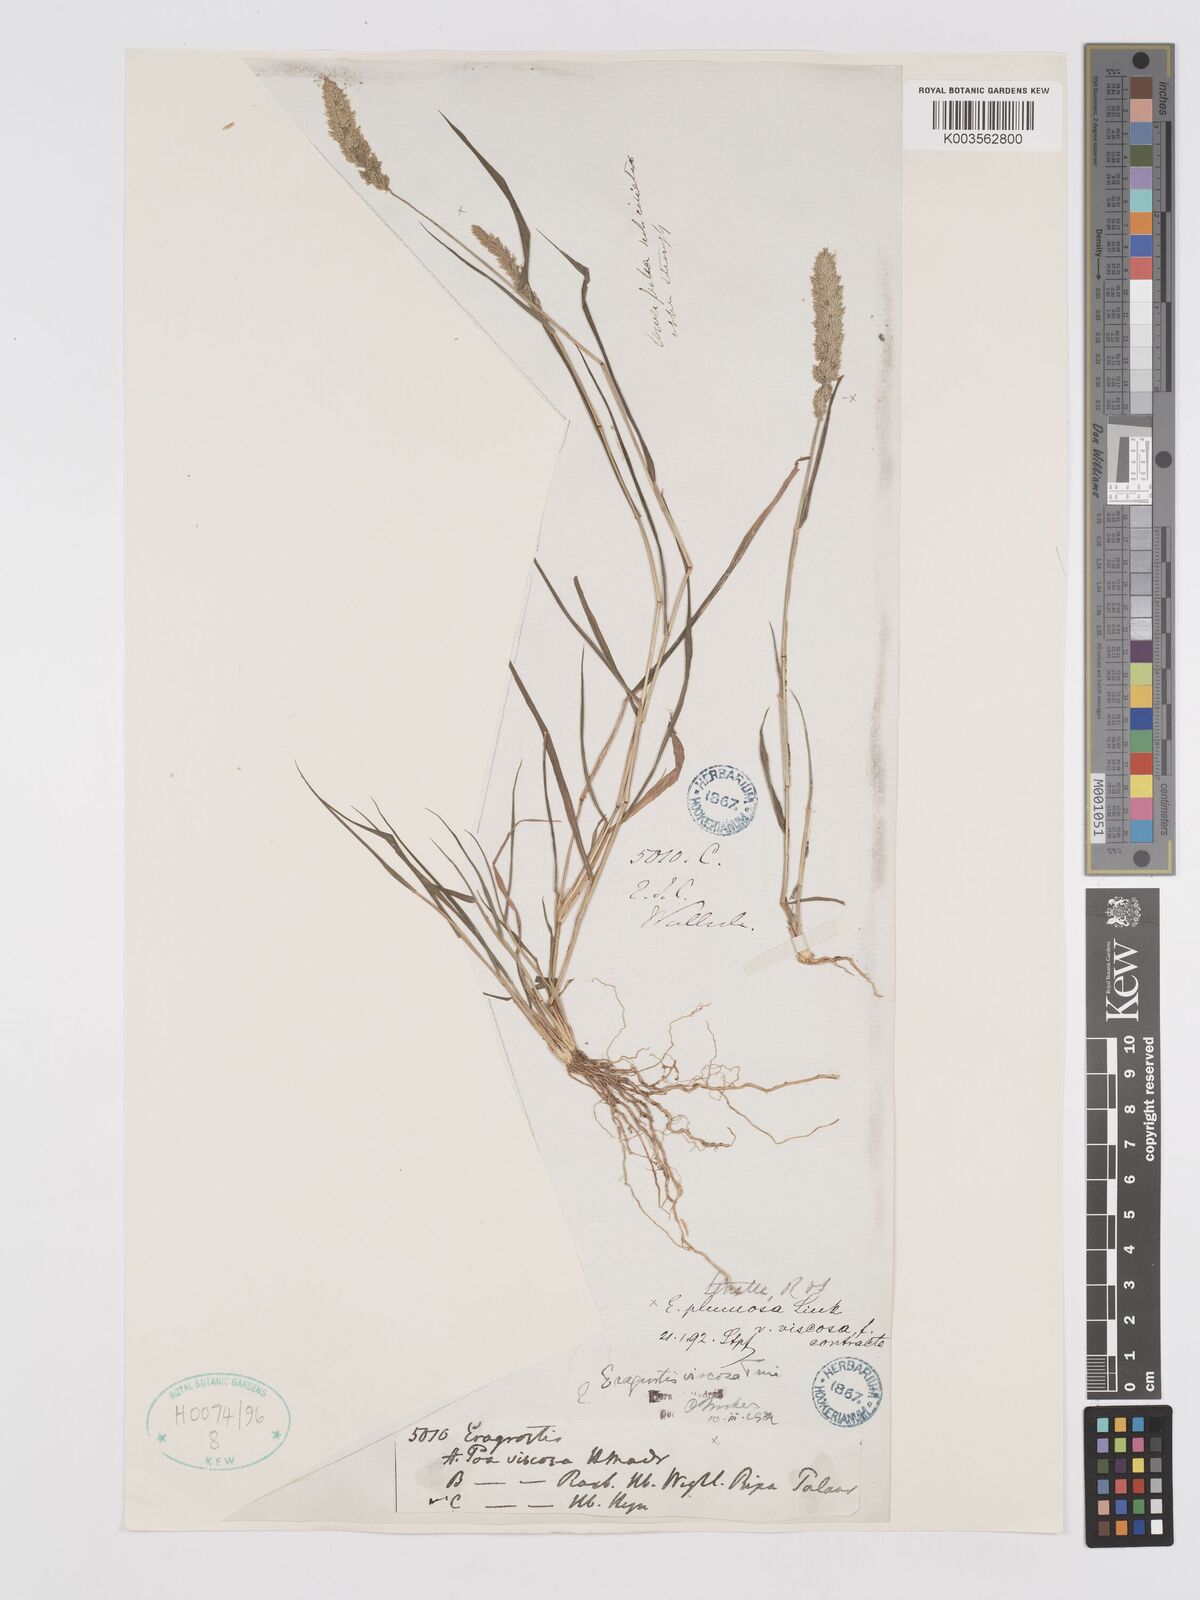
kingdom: Plantae
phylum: Tracheophyta
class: Liliopsida
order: Poales
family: Poaceae
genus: Eragrostis
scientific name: Eragrostis viscosa
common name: Sticky love grass
